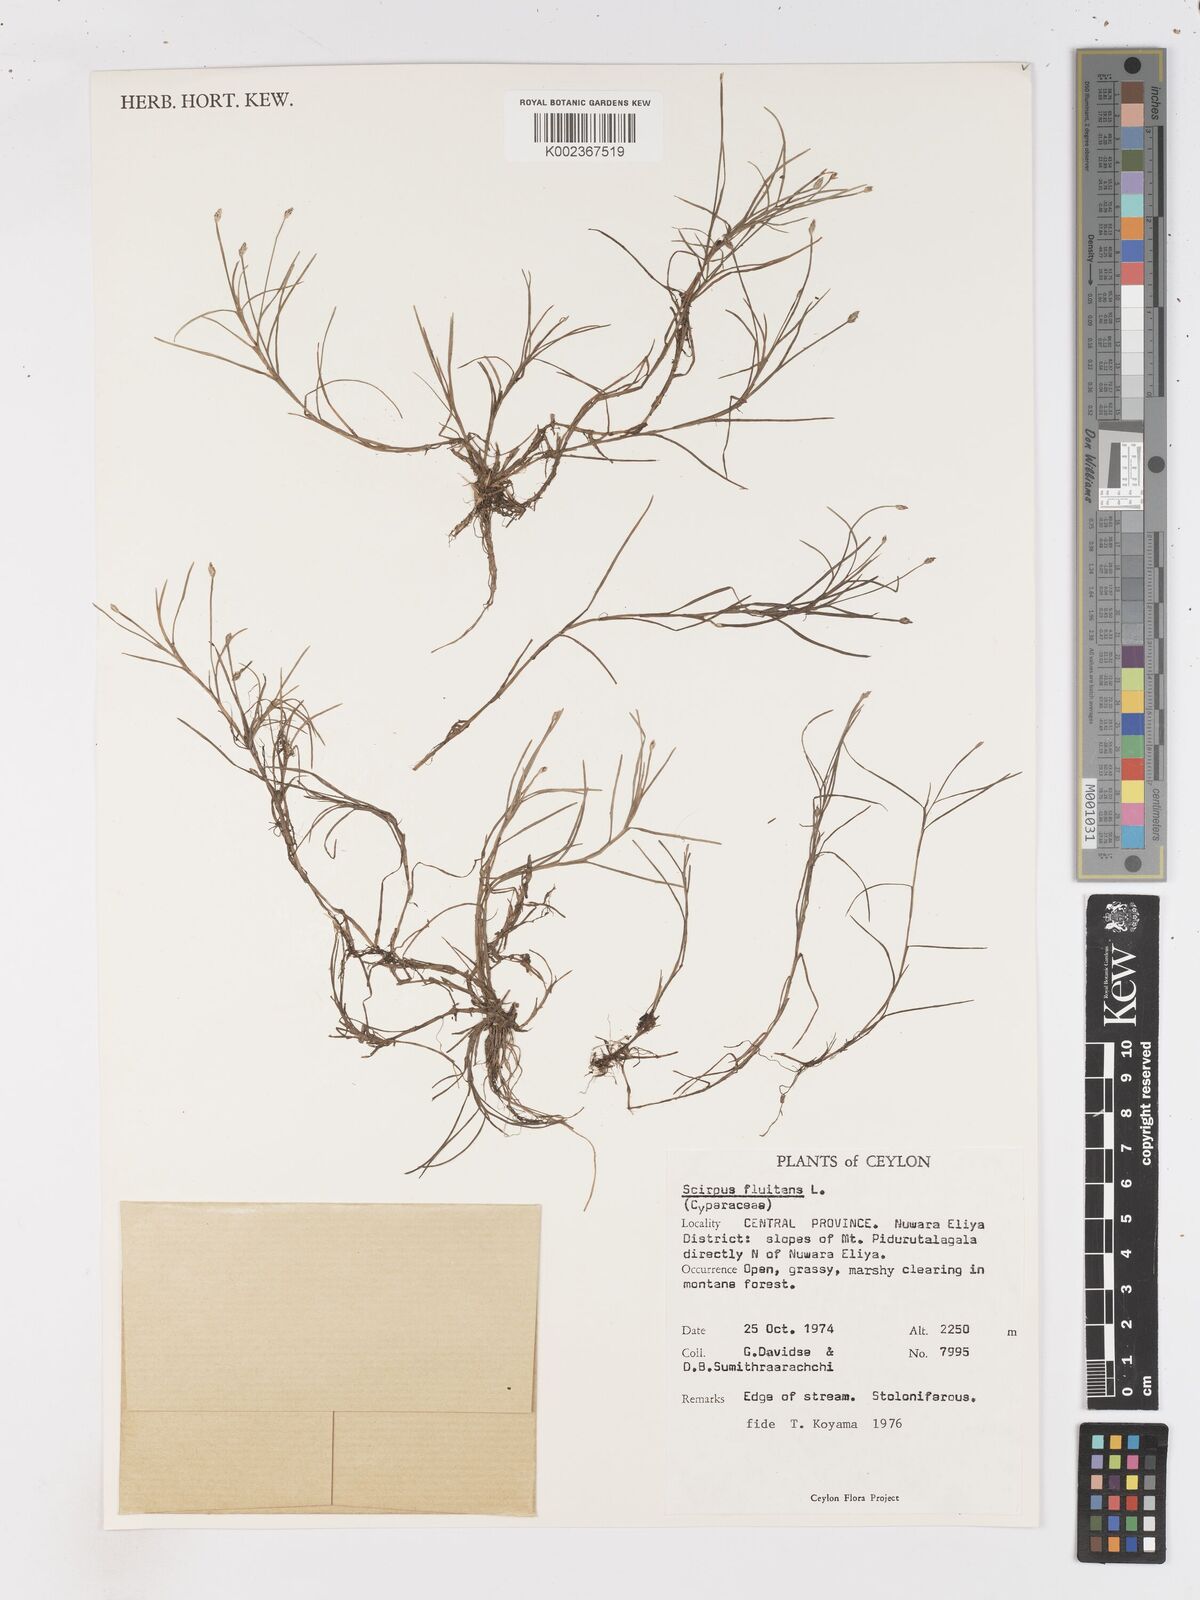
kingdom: Plantae
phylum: Tracheophyta
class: Liliopsida
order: Poales
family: Cyperaceae
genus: Isolepis
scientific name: Isolepis fluitans
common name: Floating club-rush
